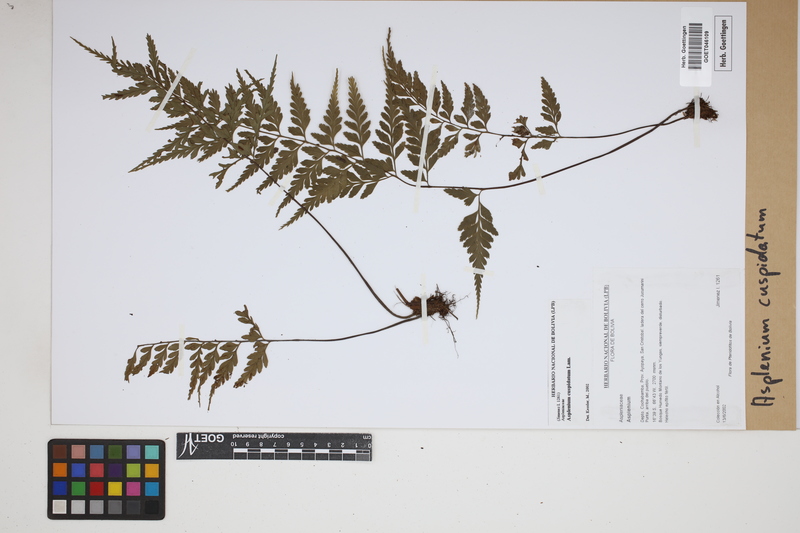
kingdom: Plantae
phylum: Tracheophyta
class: Polypodiopsida
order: Polypodiales
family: Aspleniaceae
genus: Asplenium
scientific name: Asplenium cuspidatum
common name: Eared spleenwort
